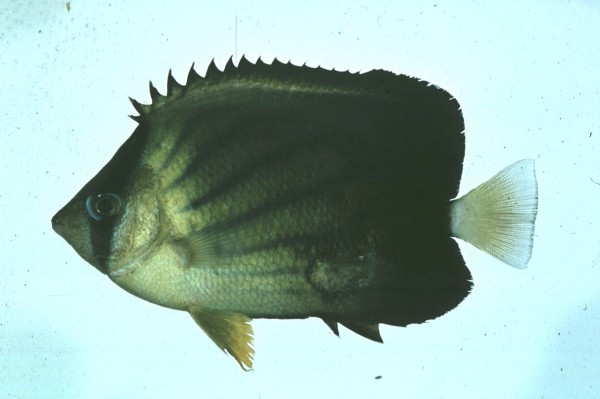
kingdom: Animalia
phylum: Chordata
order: Perciformes
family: Chaetodontidae
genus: Chaetodon
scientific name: Chaetodon blackburnii
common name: Blackburn's butterflyfish
